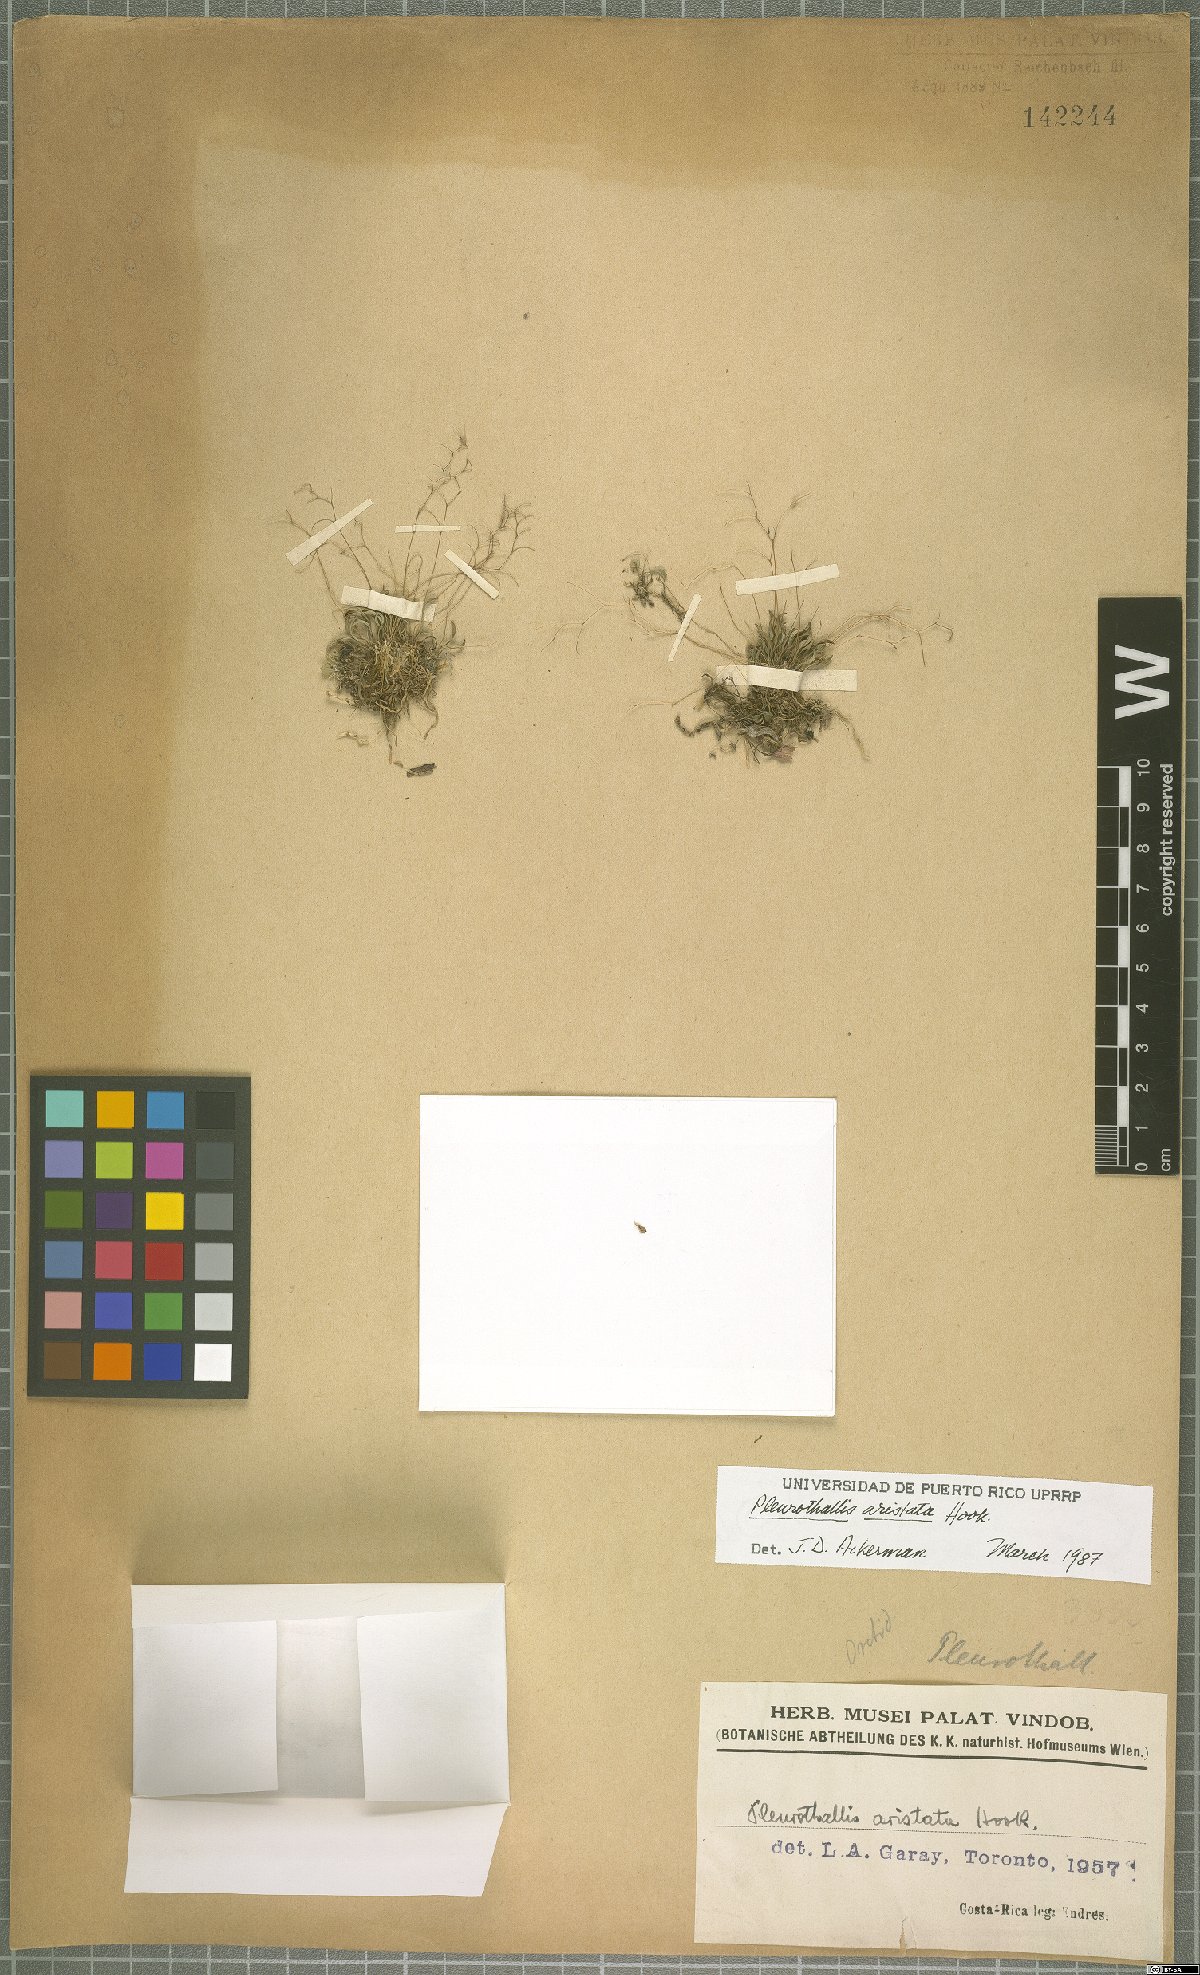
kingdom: Plantae
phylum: Tracheophyta
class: Liliopsida
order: Asparagales
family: Orchidaceae
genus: Muscarella
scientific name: Muscarella aristata
